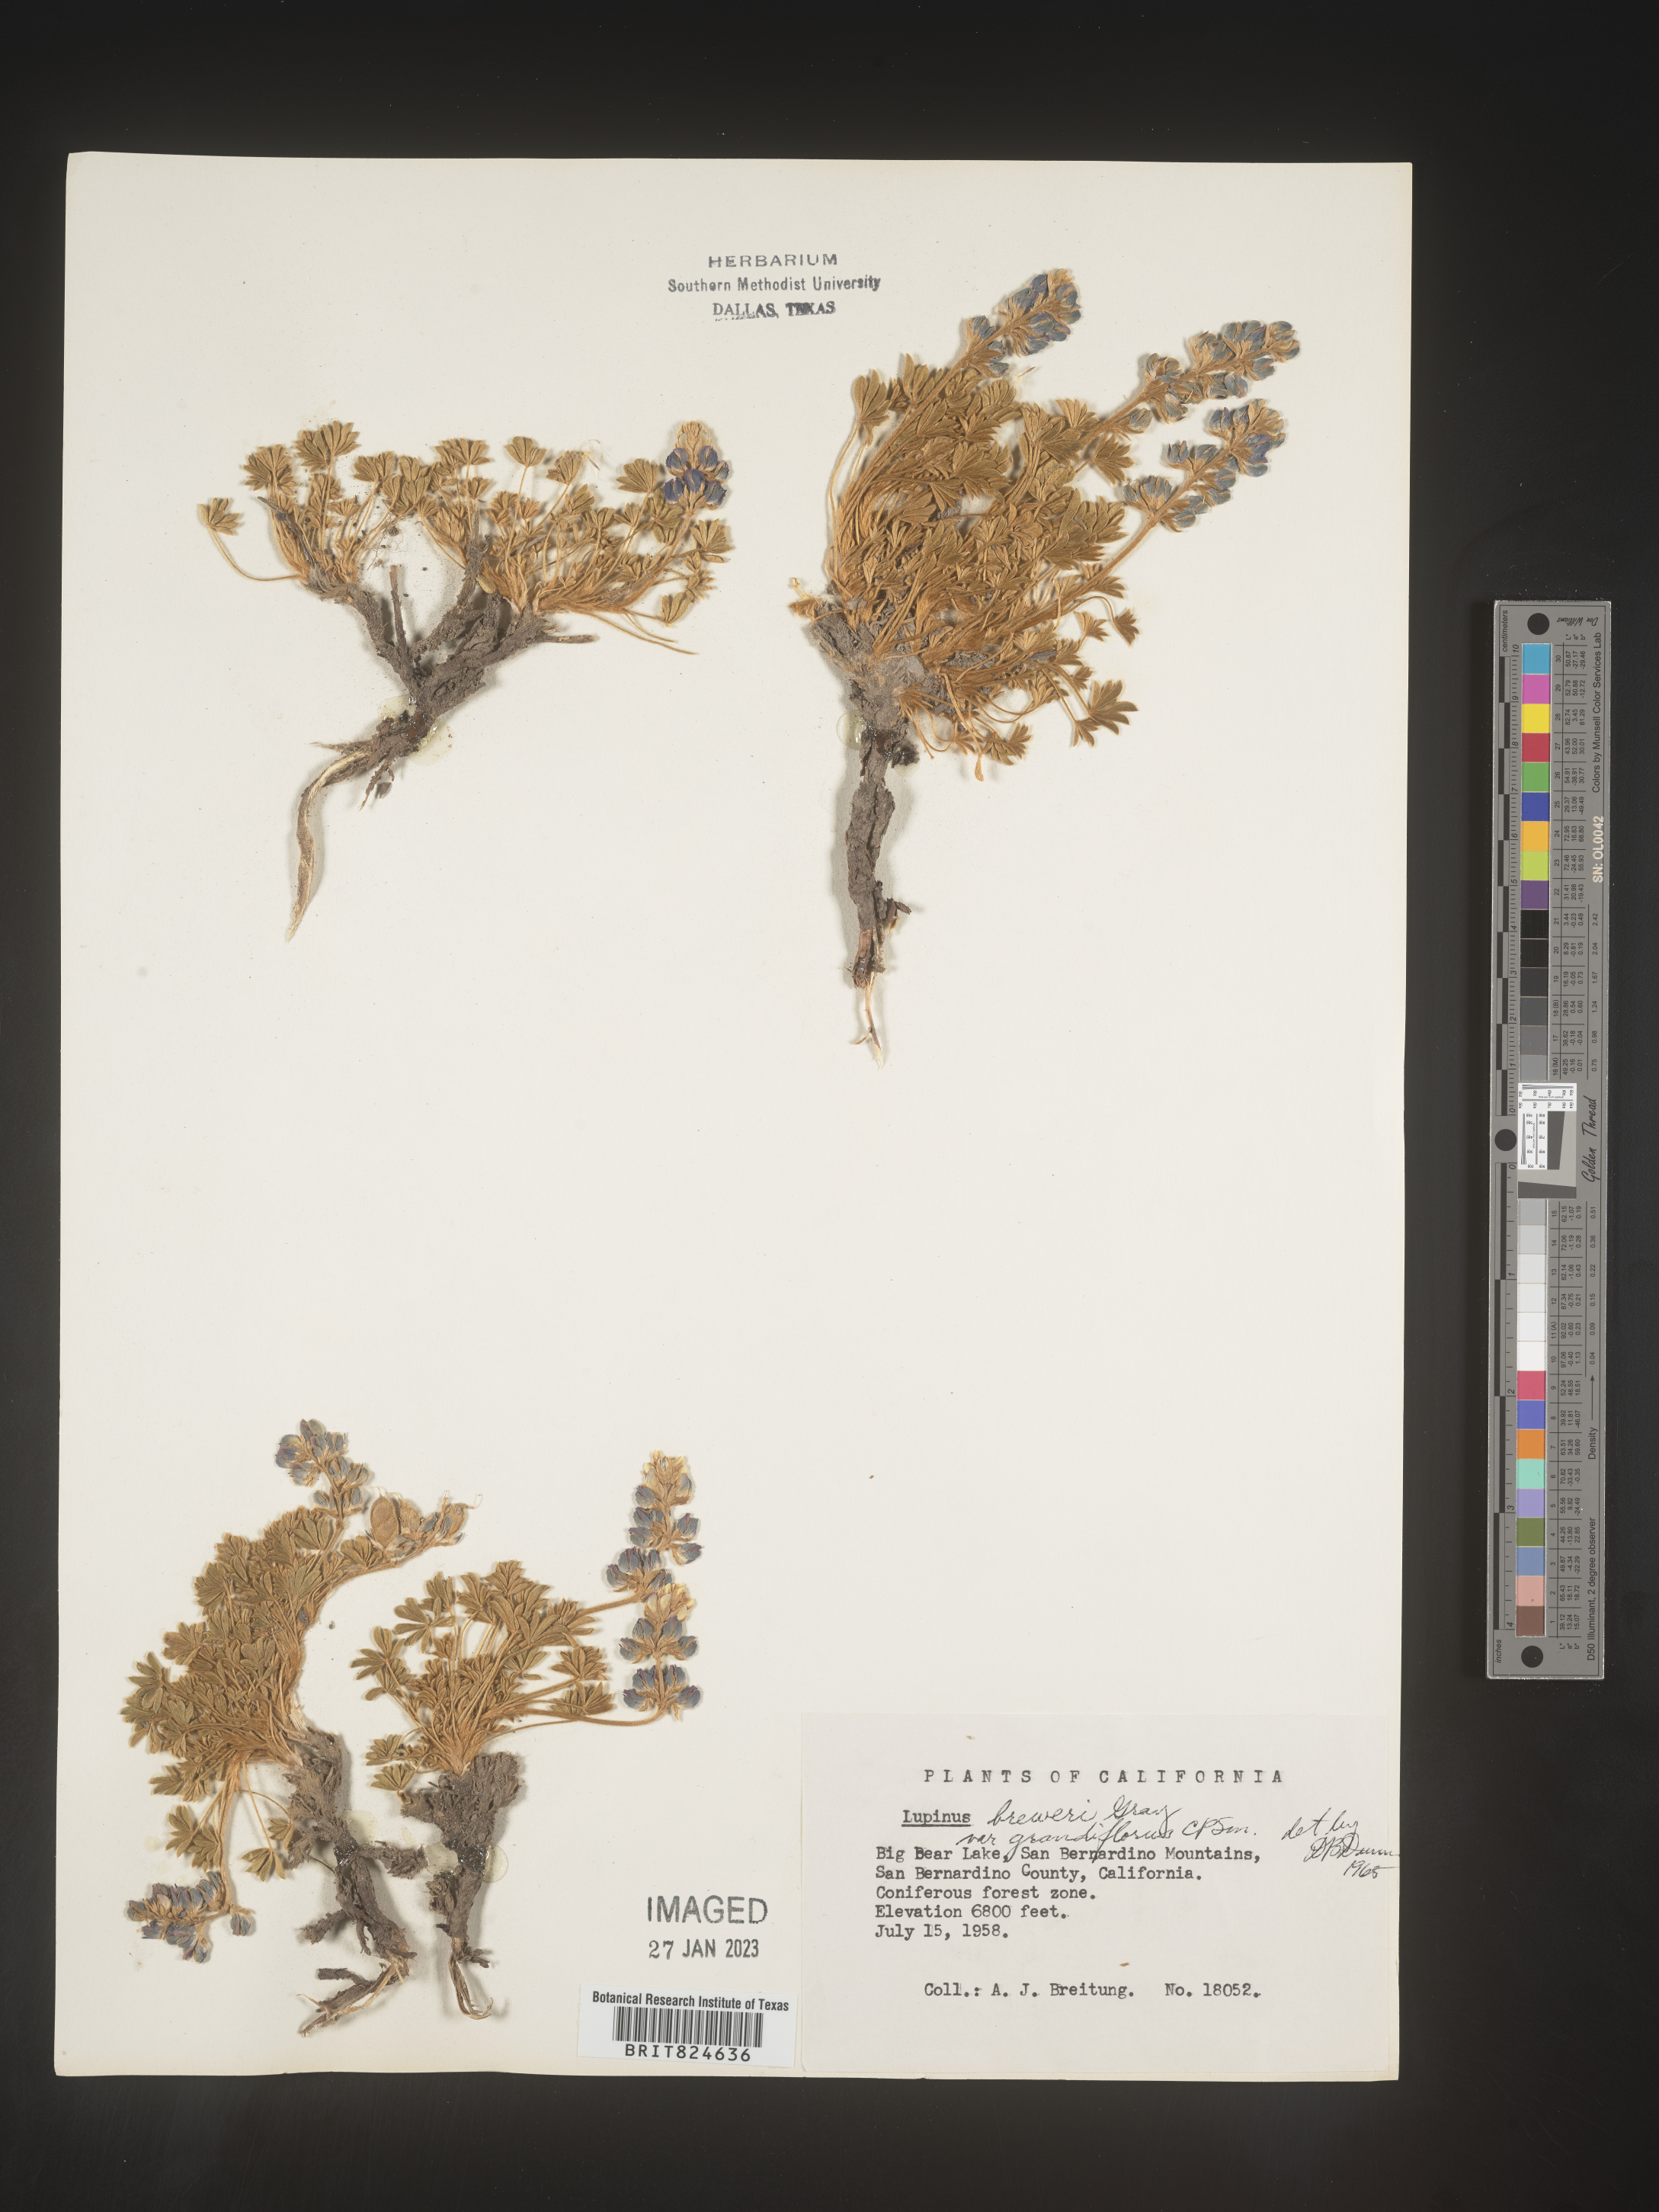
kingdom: Plantae
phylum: Tracheophyta
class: Magnoliopsida
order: Fabales
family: Fabaceae
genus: Lupinus
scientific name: Lupinus
